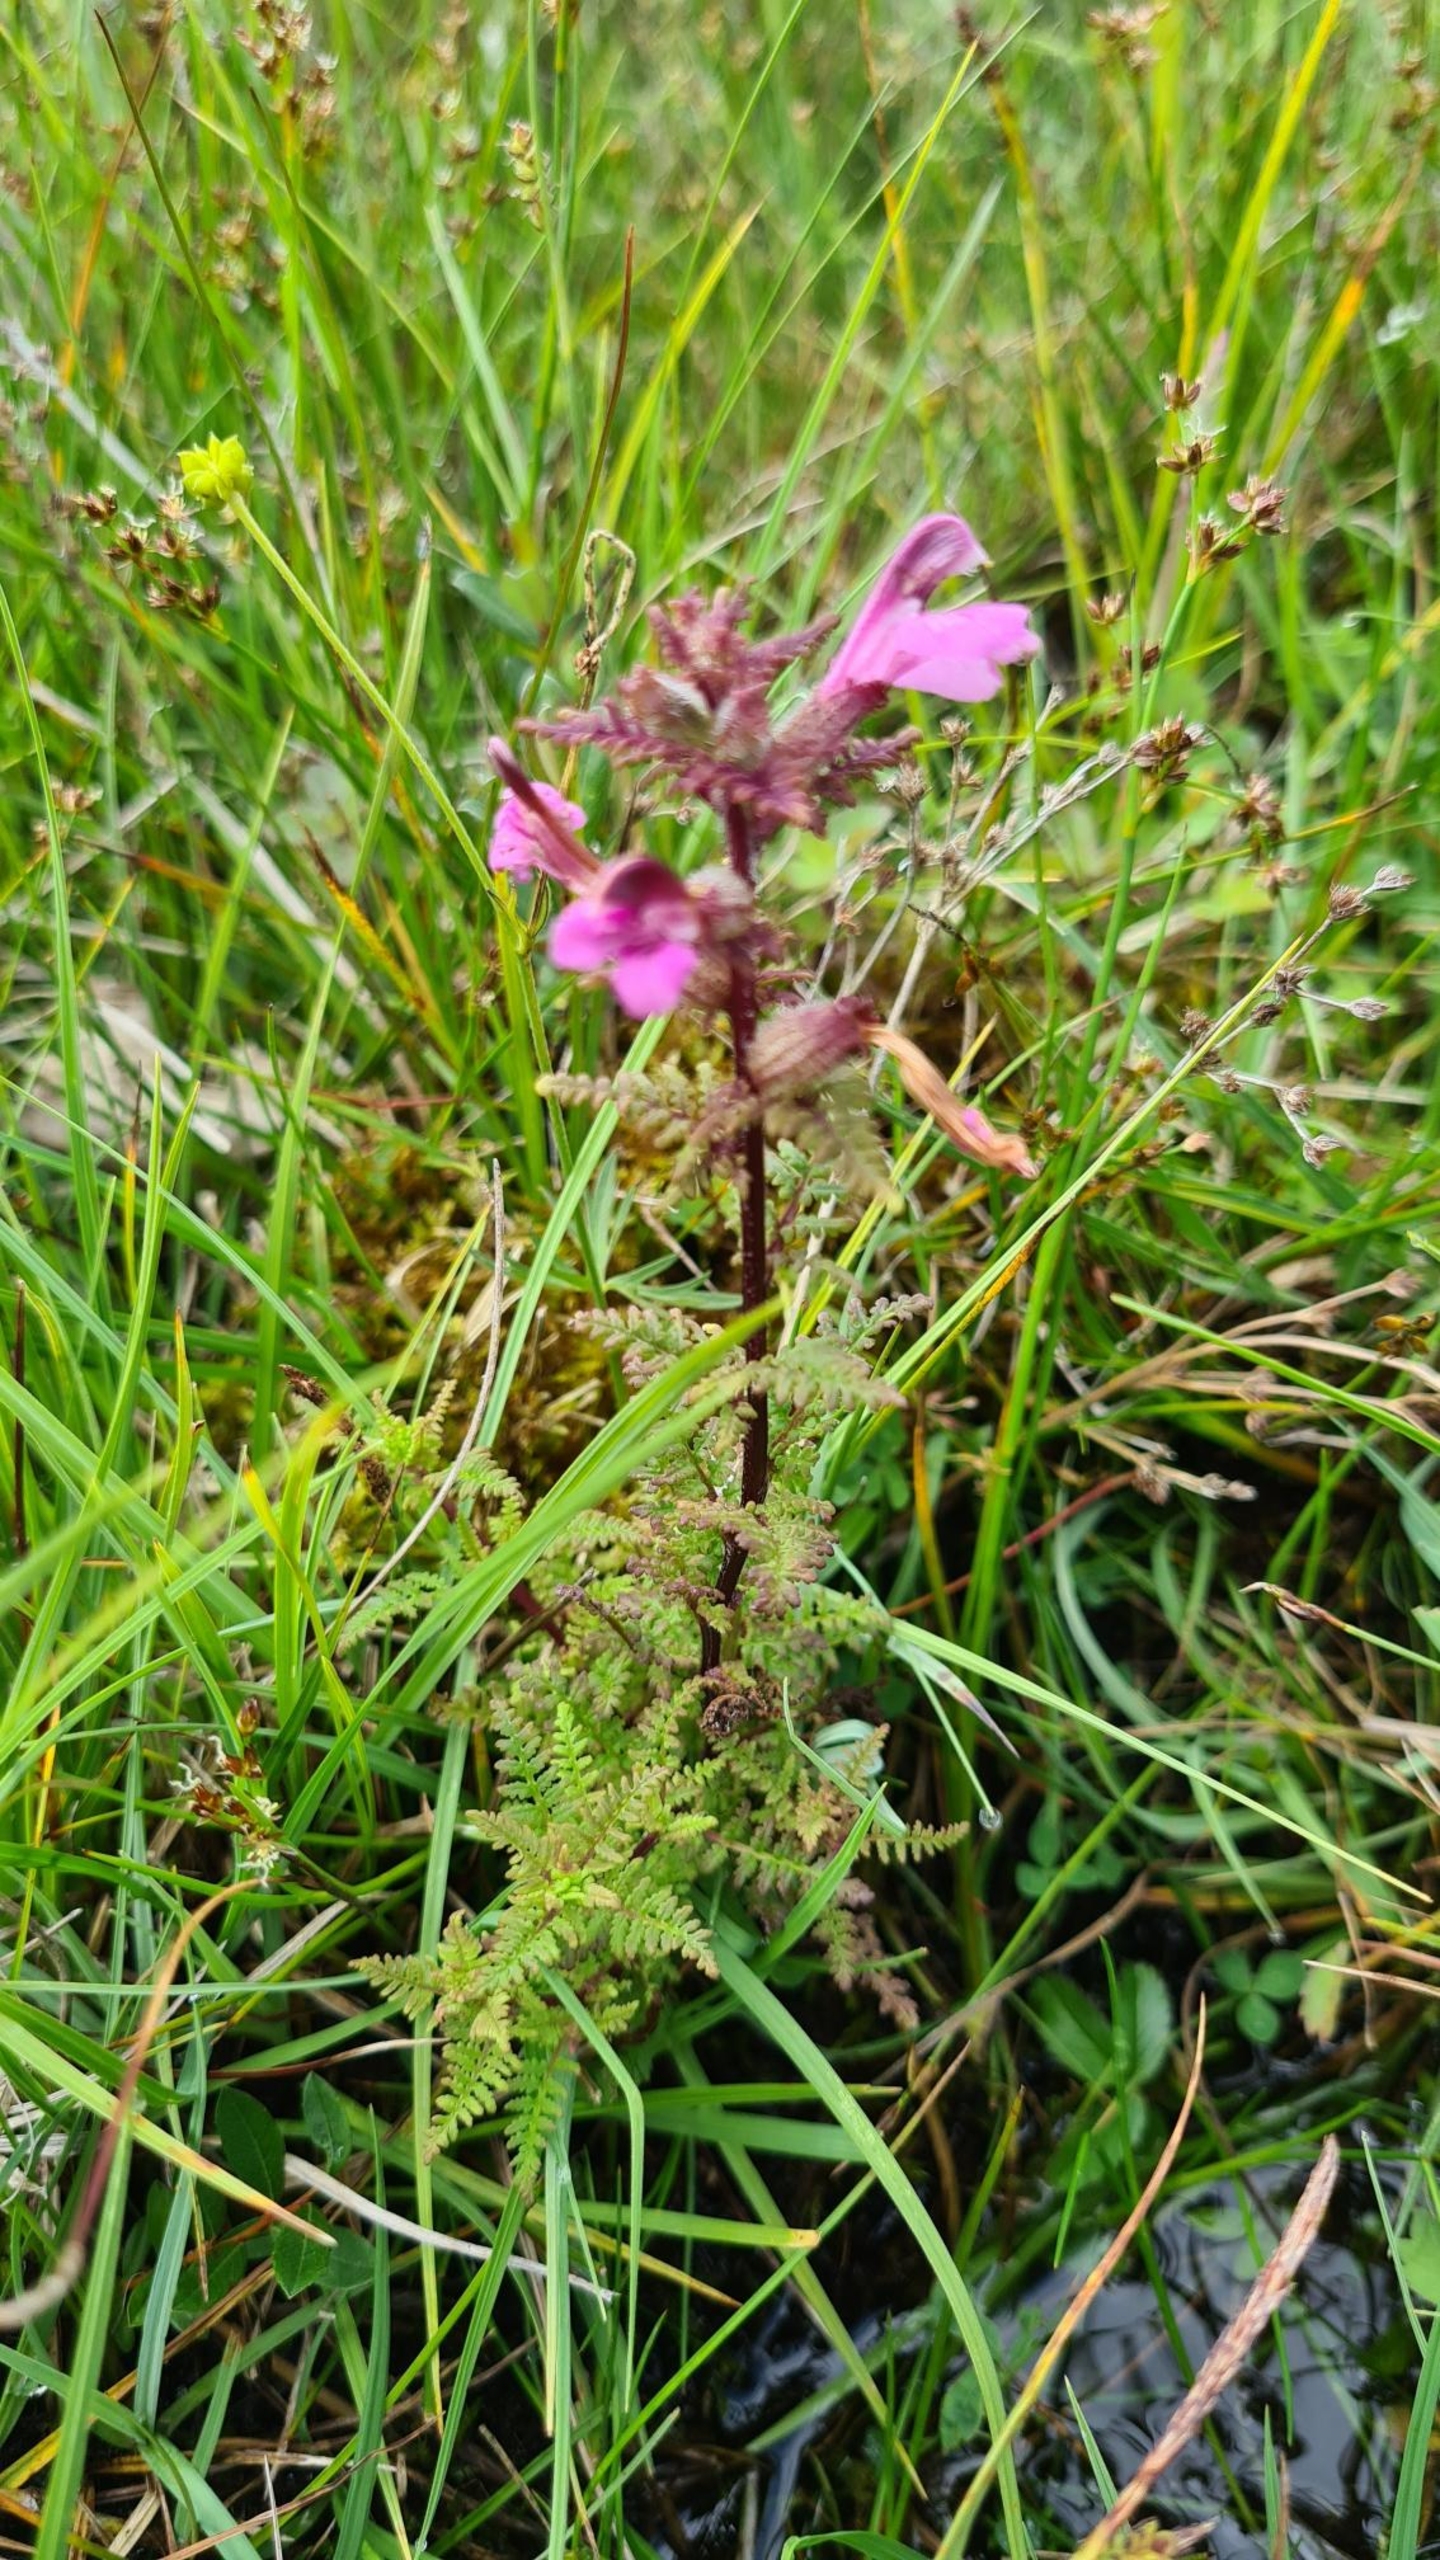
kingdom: Plantae
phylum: Tracheophyta
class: Magnoliopsida
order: Lamiales
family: Orobanchaceae
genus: Pedicularis
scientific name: Pedicularis palustris
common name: Eng-troldurt
